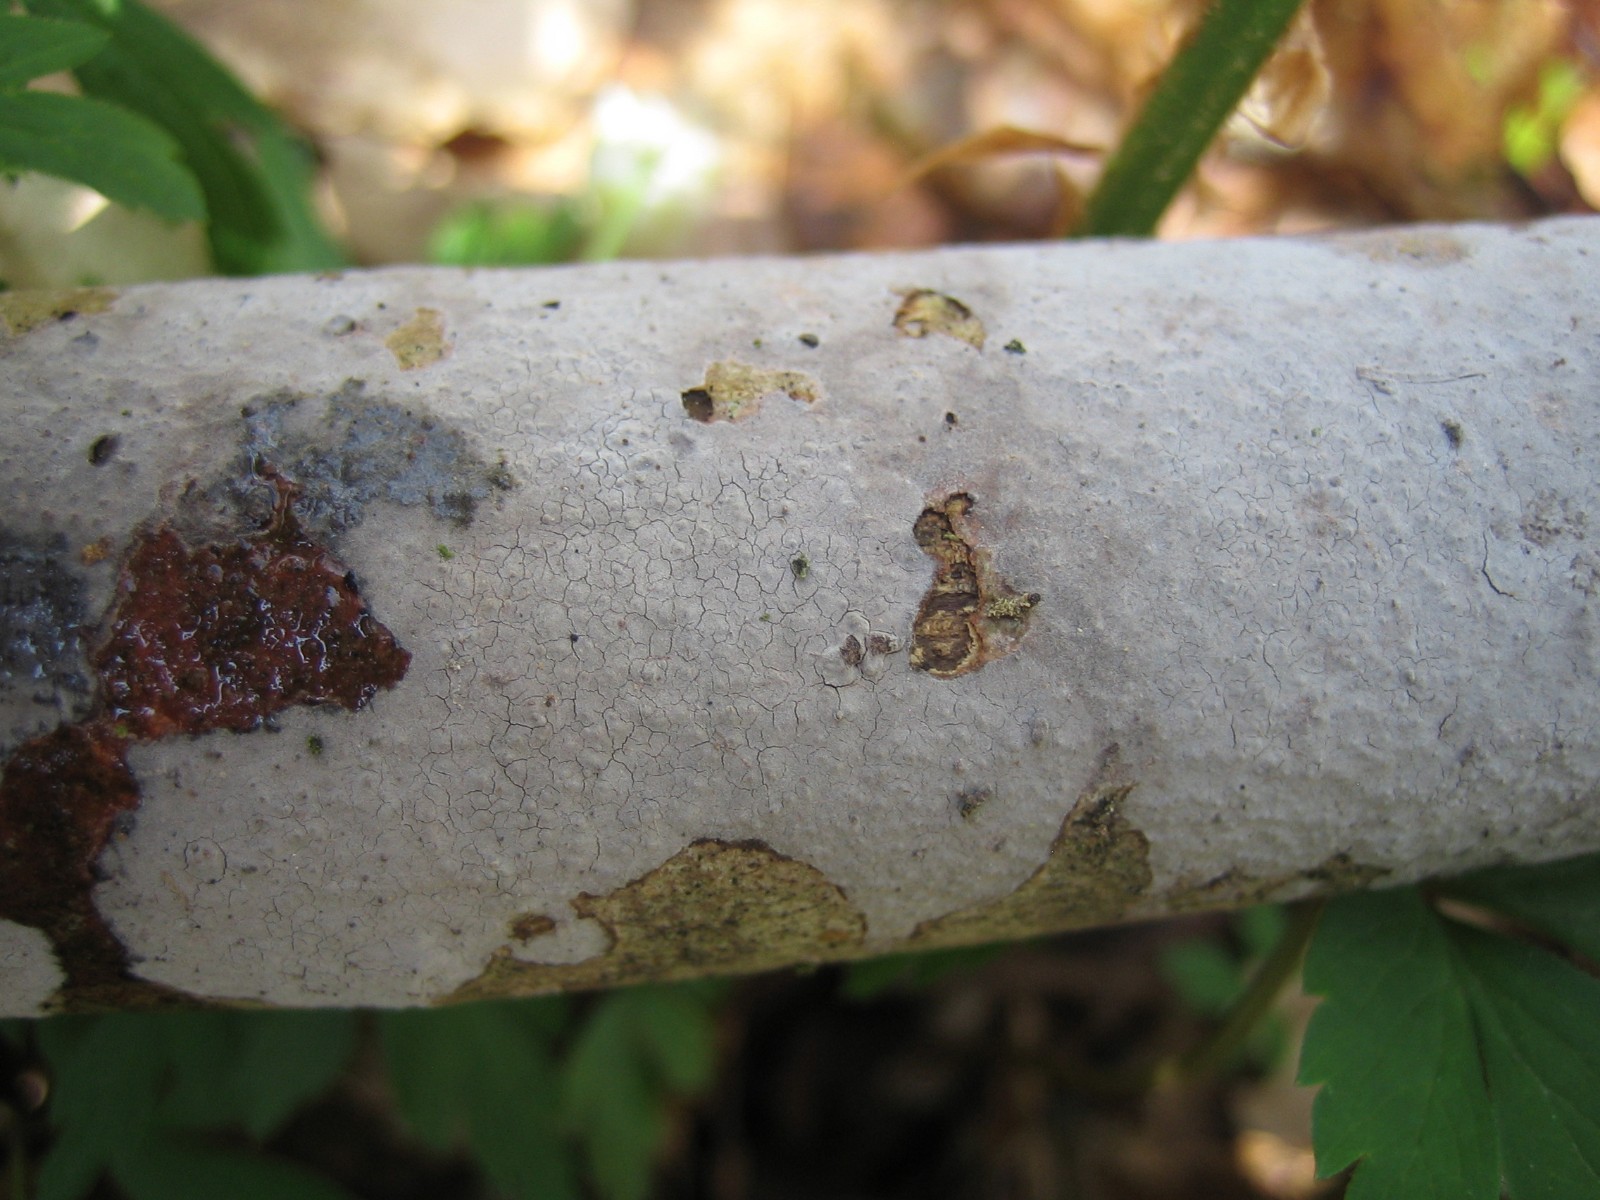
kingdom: Fungi
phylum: Basidiomycota
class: Agaricomycetes
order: Corticiales
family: Corticiaceae
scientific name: Corticiaceae
